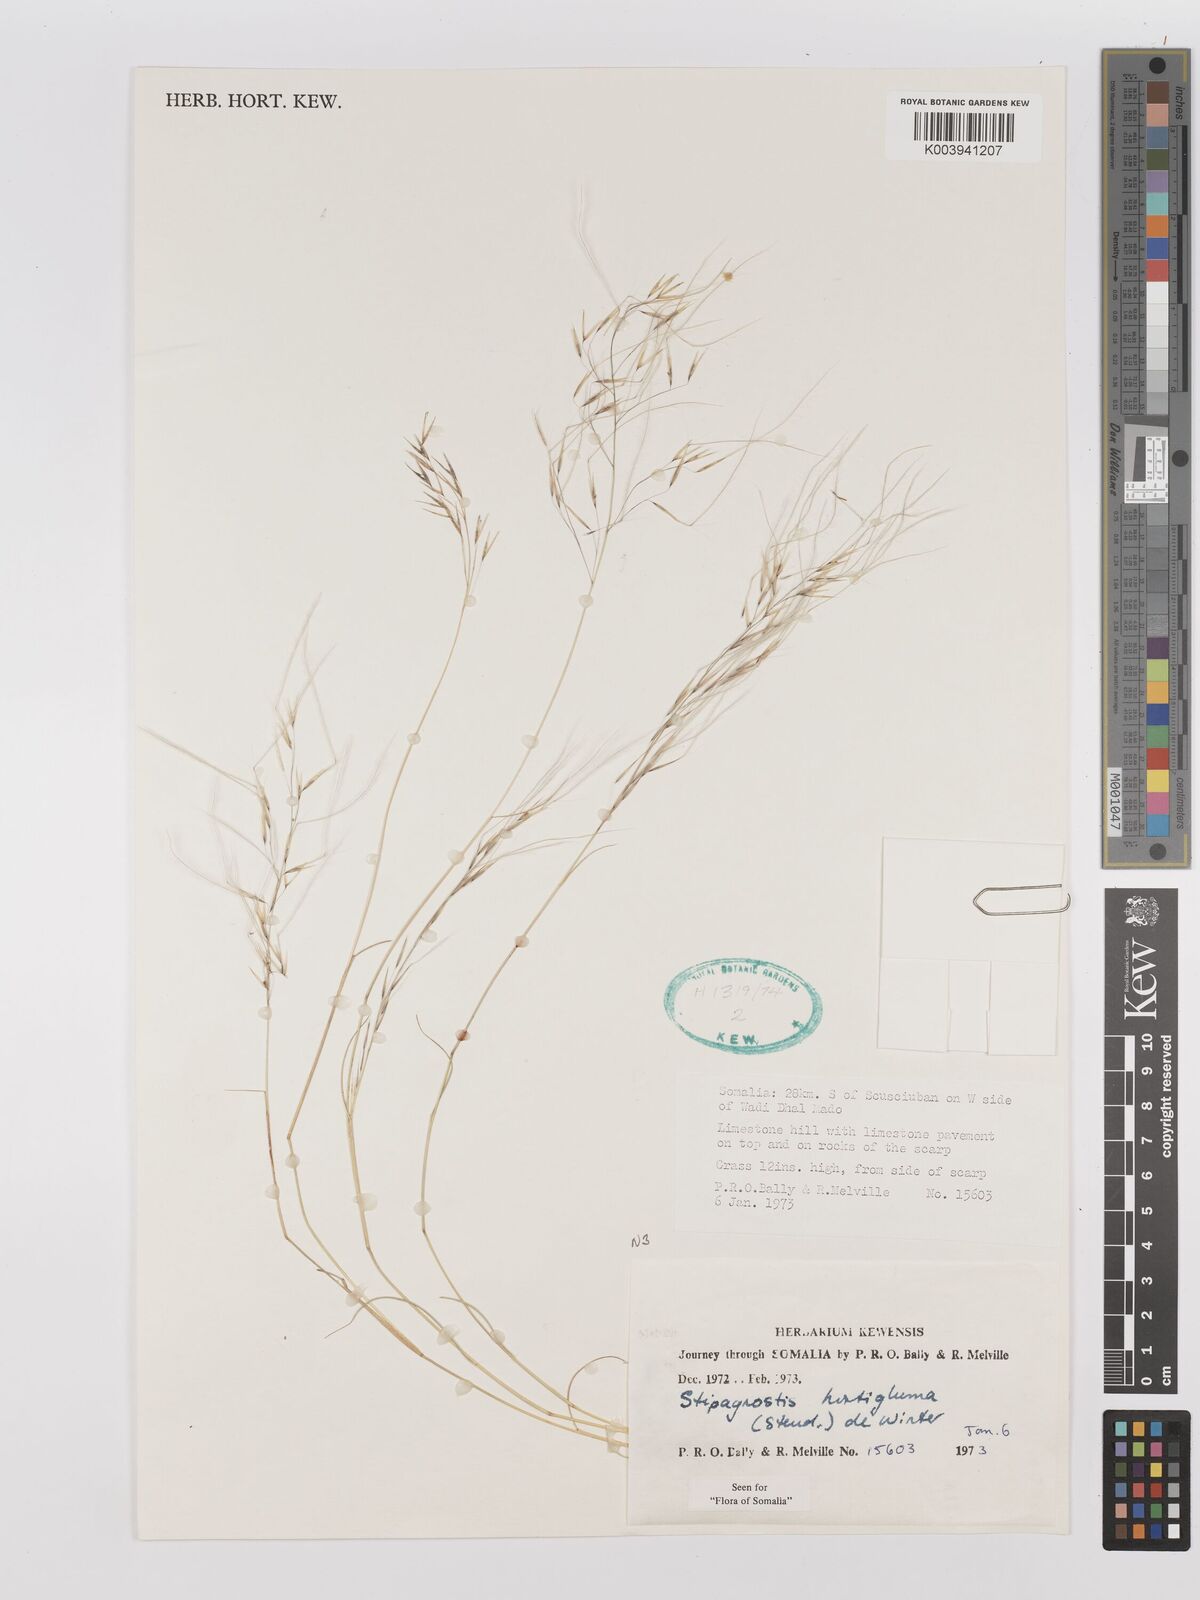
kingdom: Plantae
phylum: Tracheophyta
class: Liliopsida
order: Poales
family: Poaceae
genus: Stipagrostis
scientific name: Stipagrostis hirtigluma
